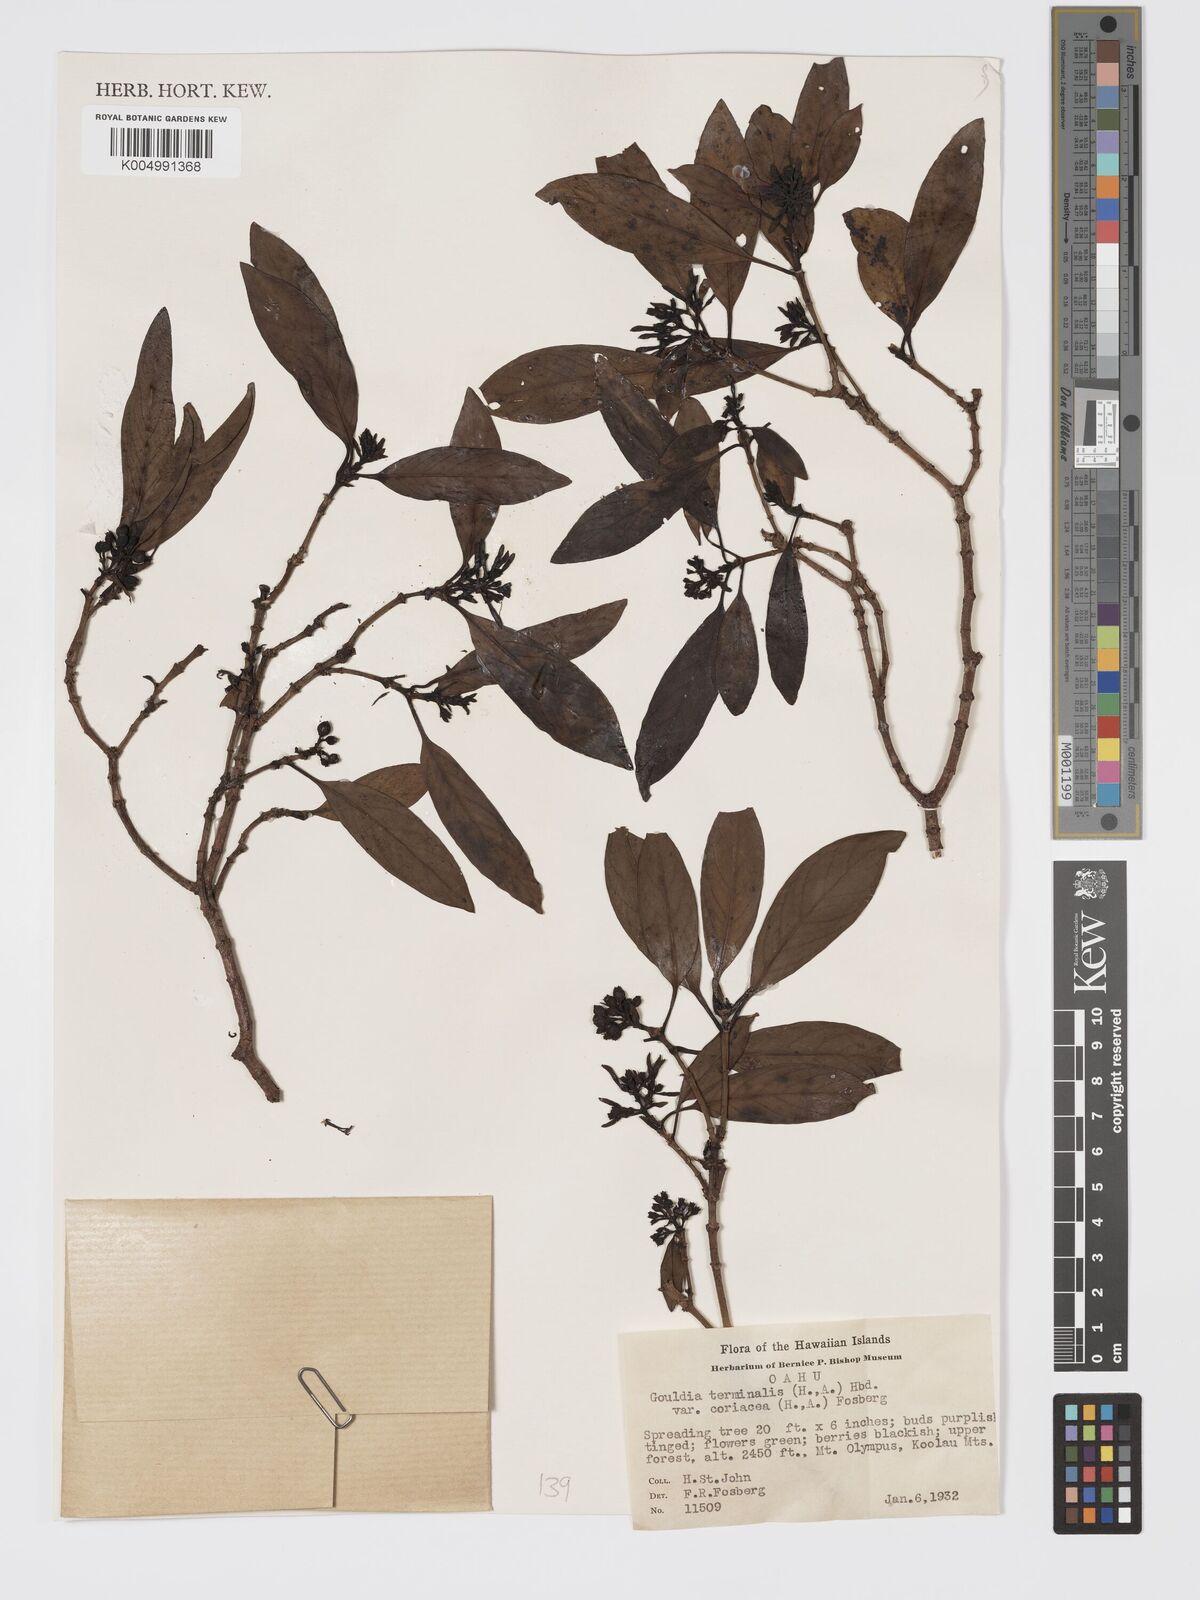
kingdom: Plantae
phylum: Tracheophyta
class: Magnoliopsida
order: Gentianales
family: Rubiaceae
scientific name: Rubiaceae
